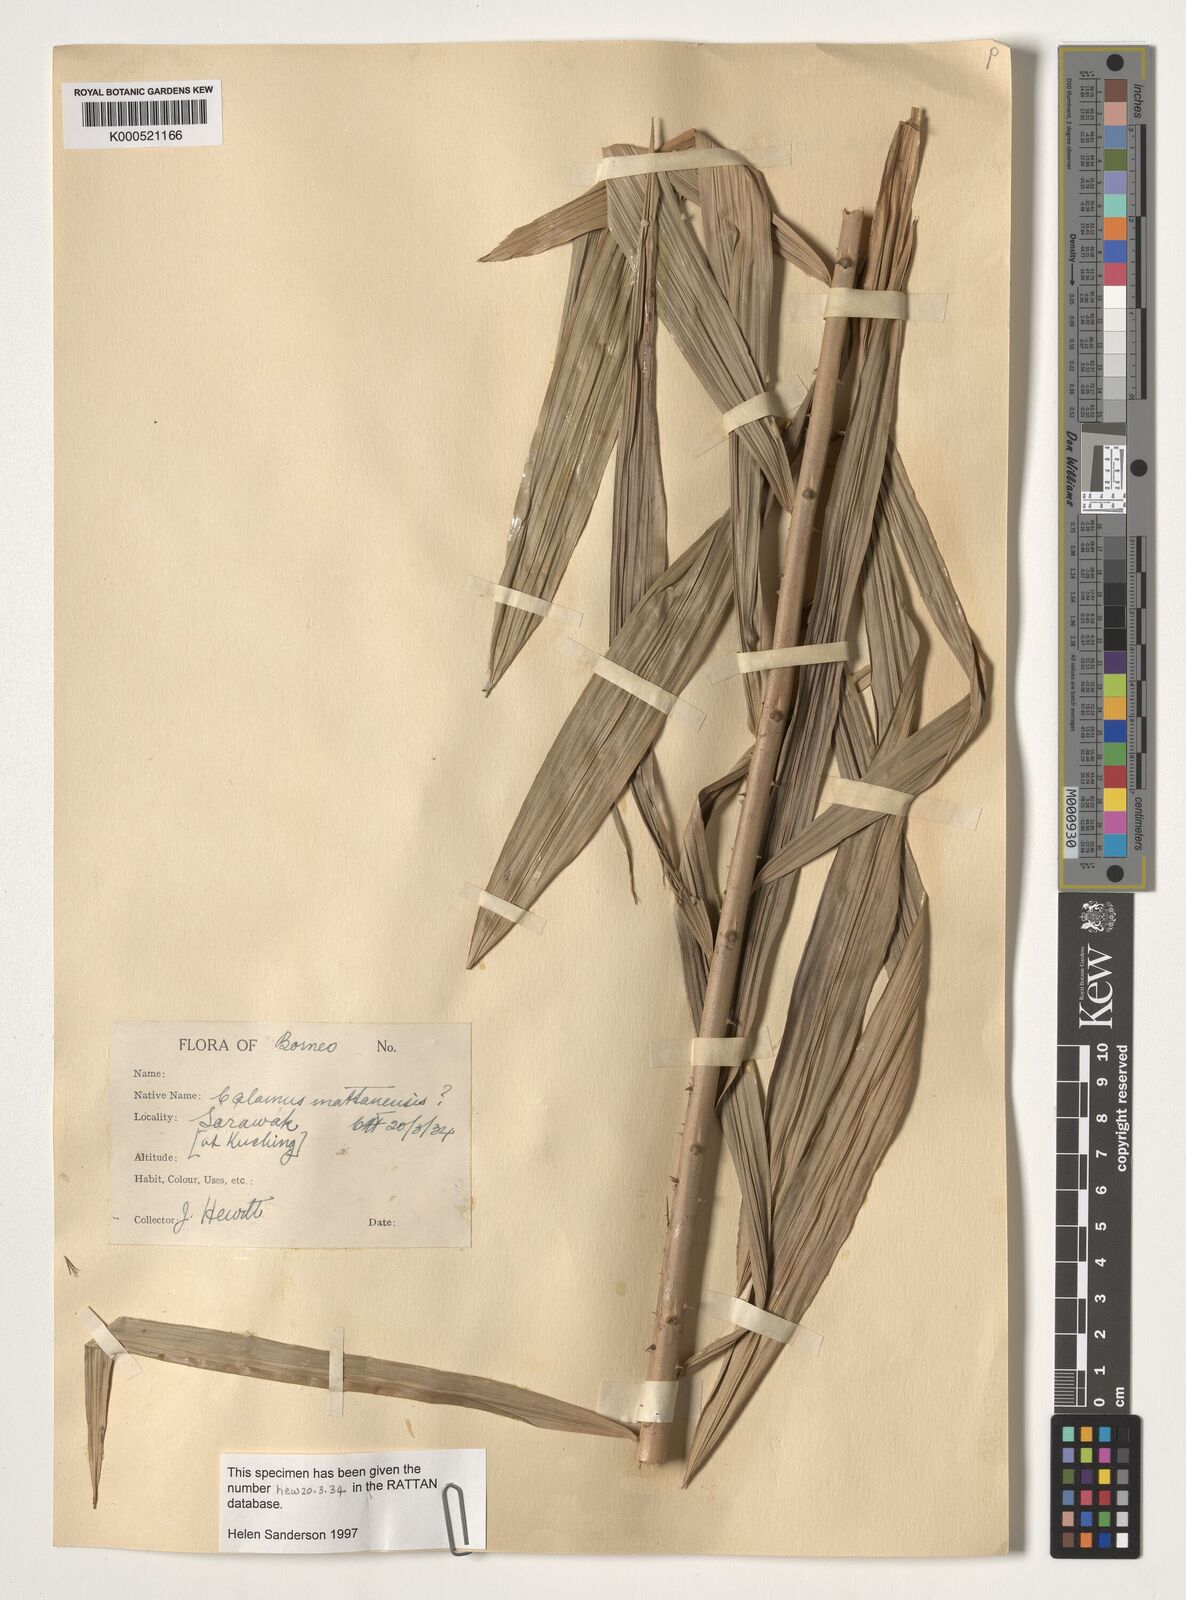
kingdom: Plantae
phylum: Tracheophyta
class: Liliopsida
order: Arecales
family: Arecaceae
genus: Calamus
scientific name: Calamus
